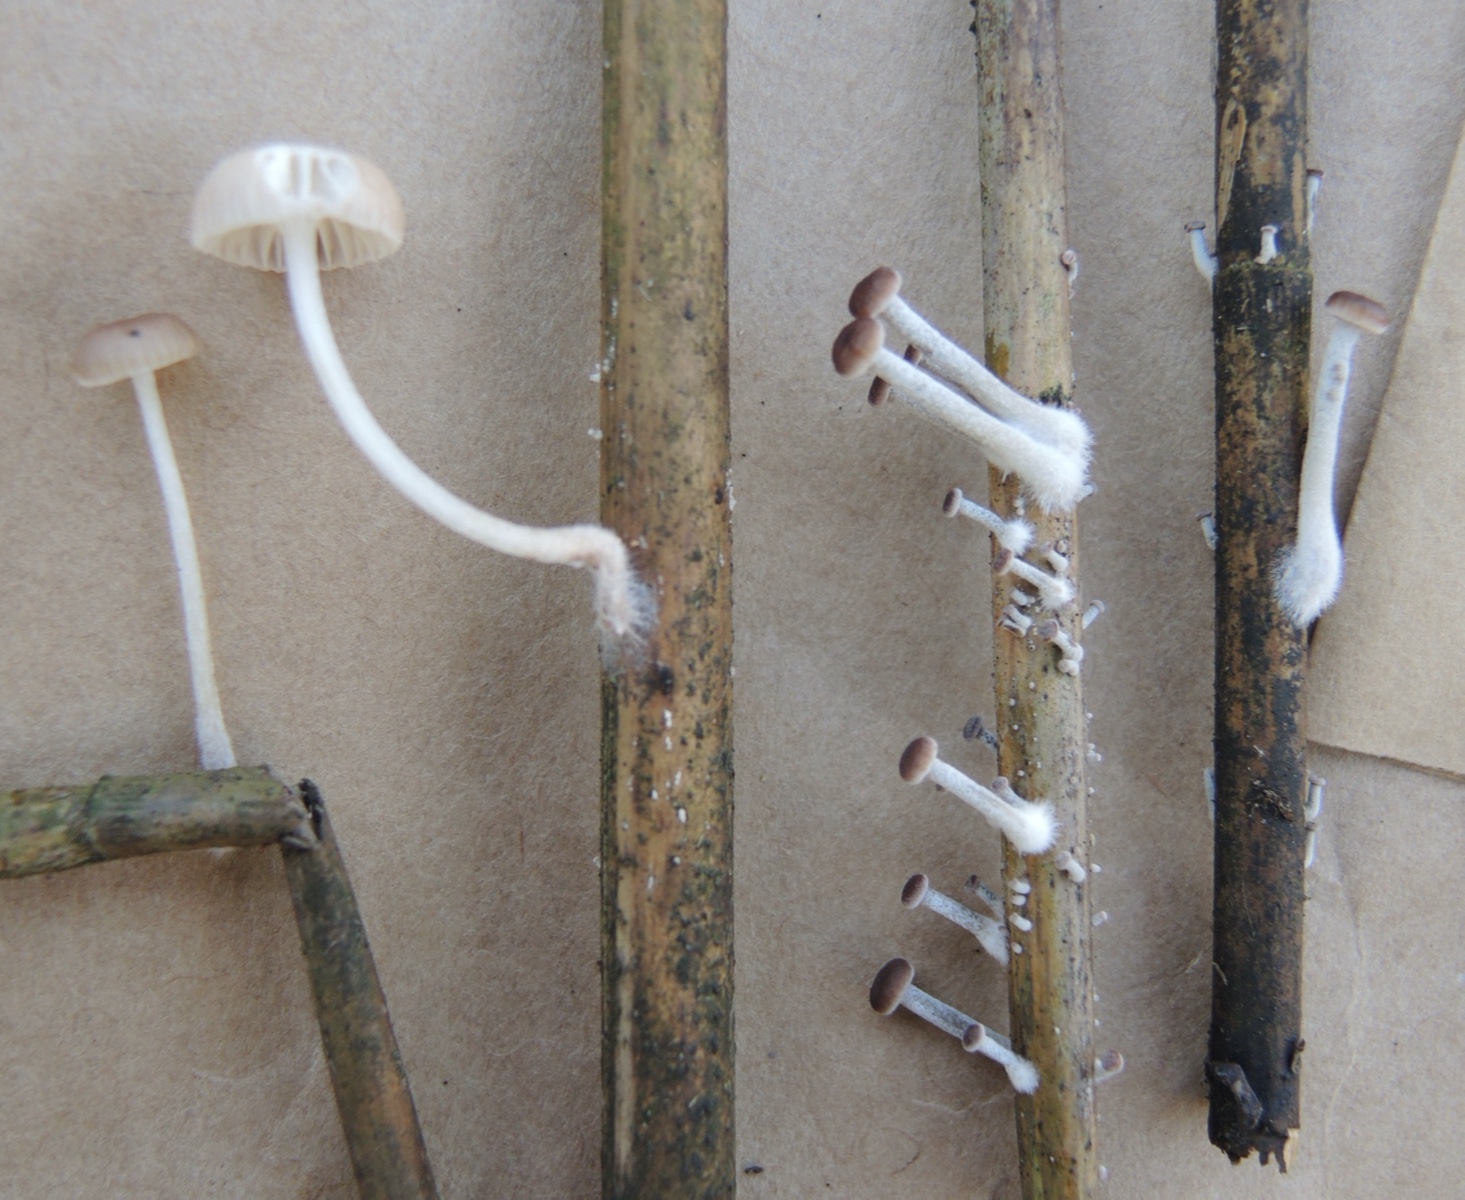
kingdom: Fungi
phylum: Basidiomycota
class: Agaricomycetes
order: Agaricales
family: Mycenaceae
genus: Mycena
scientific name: Mycena belliae
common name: tagrørs-huesvamp
